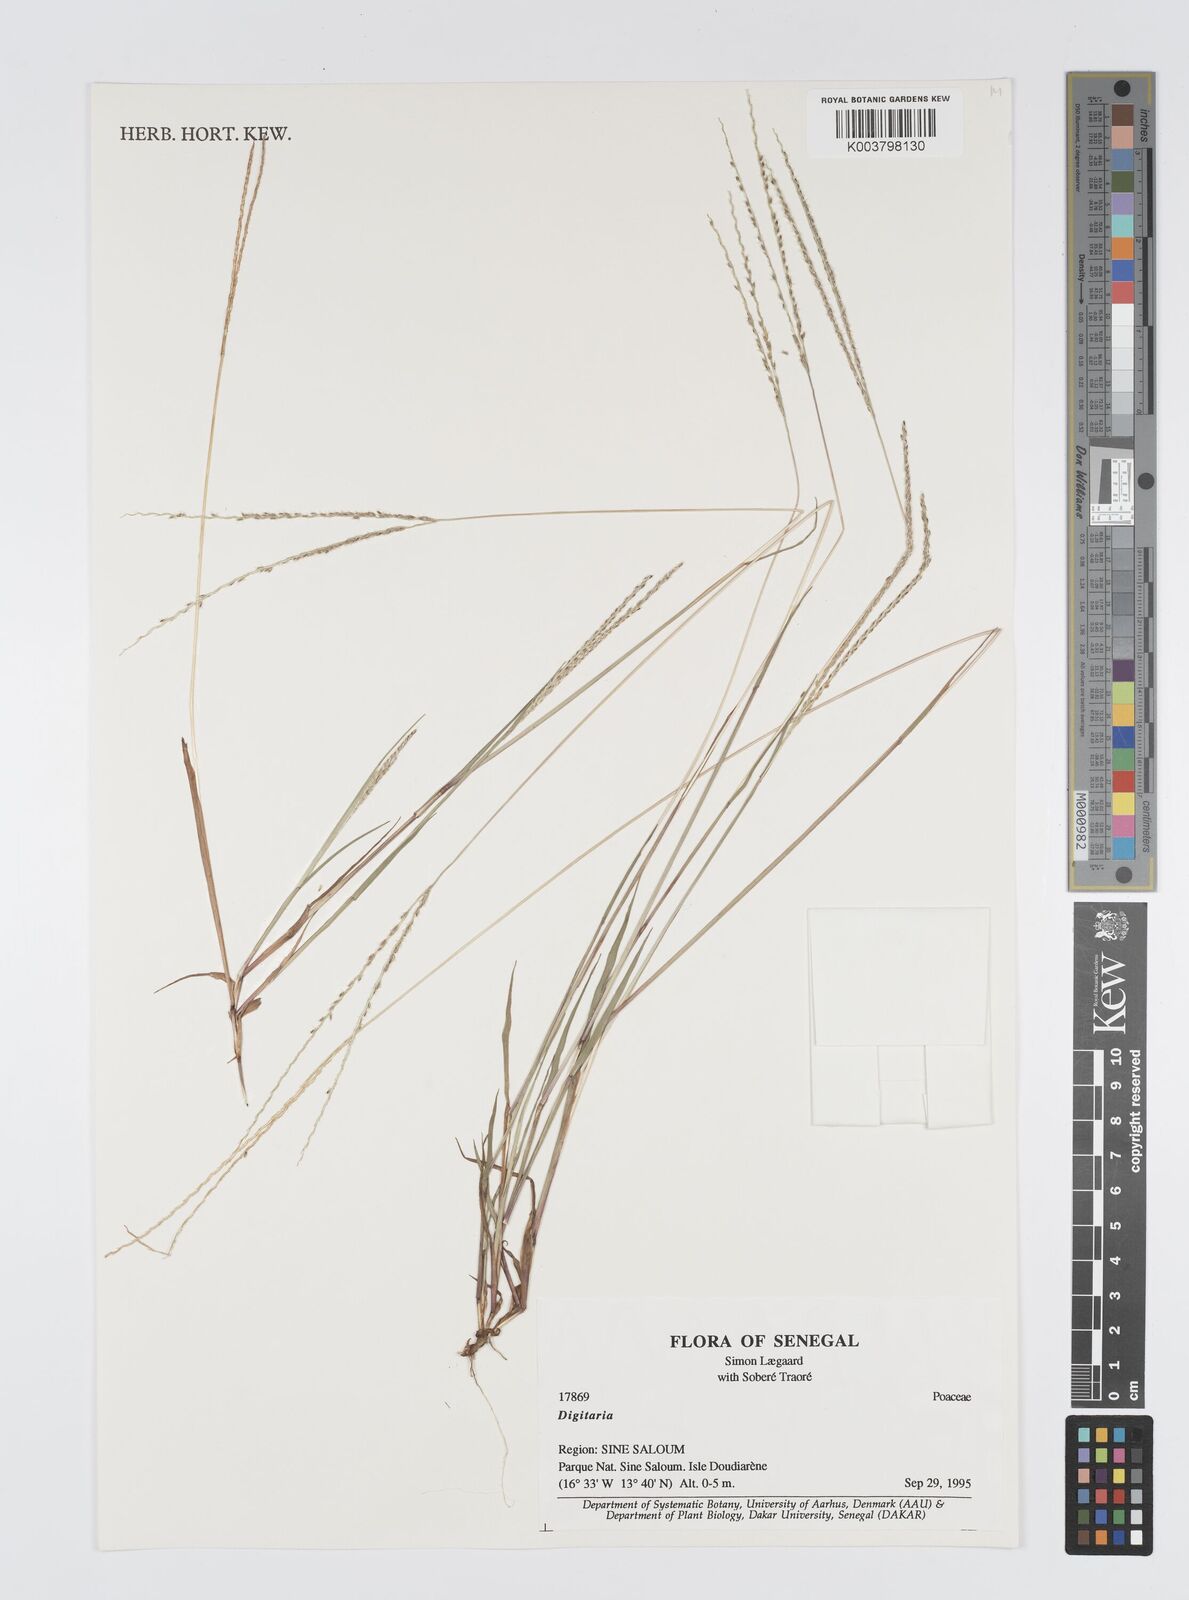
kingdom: Plantae
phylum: Tracheophyta
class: Liliopsida
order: Poales
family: Poaceae
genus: Digitaria
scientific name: Digitaria ciliaris
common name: Tropical finger-grass
